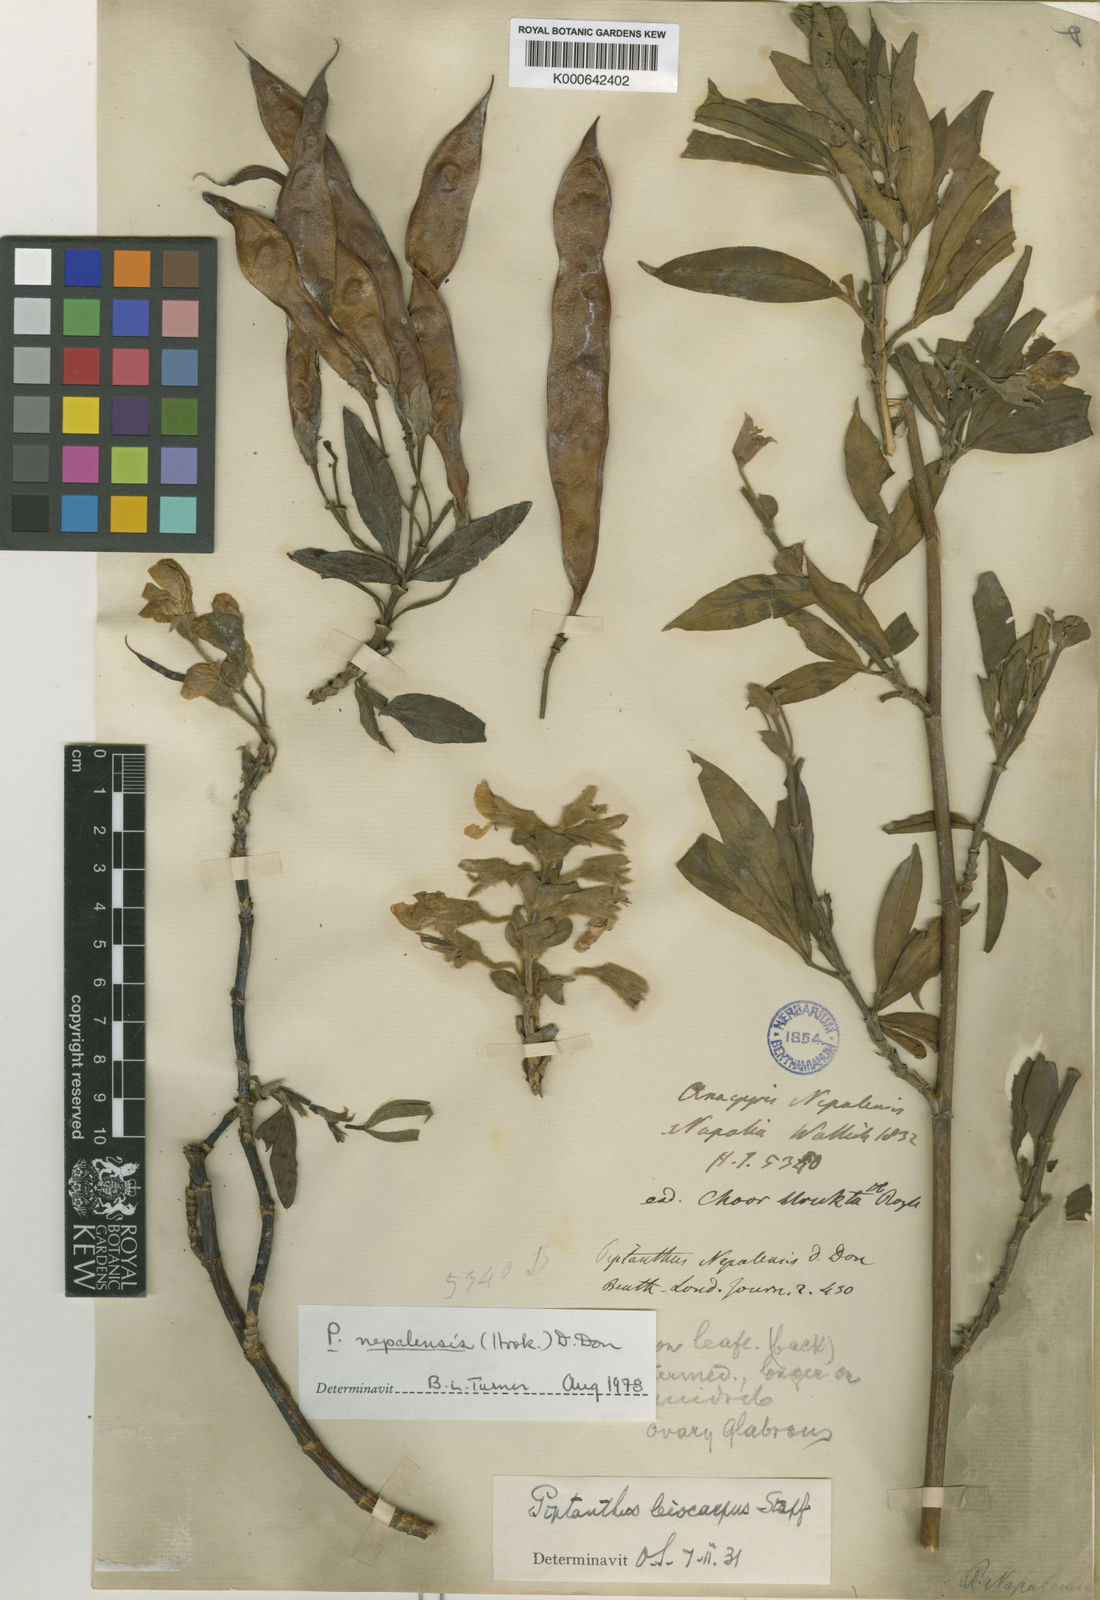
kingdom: Plantae
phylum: Tracheophyta
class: Magnoliopsida
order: Fabales
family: Fabaceae
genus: Piptanthus
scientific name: Piptanthus
